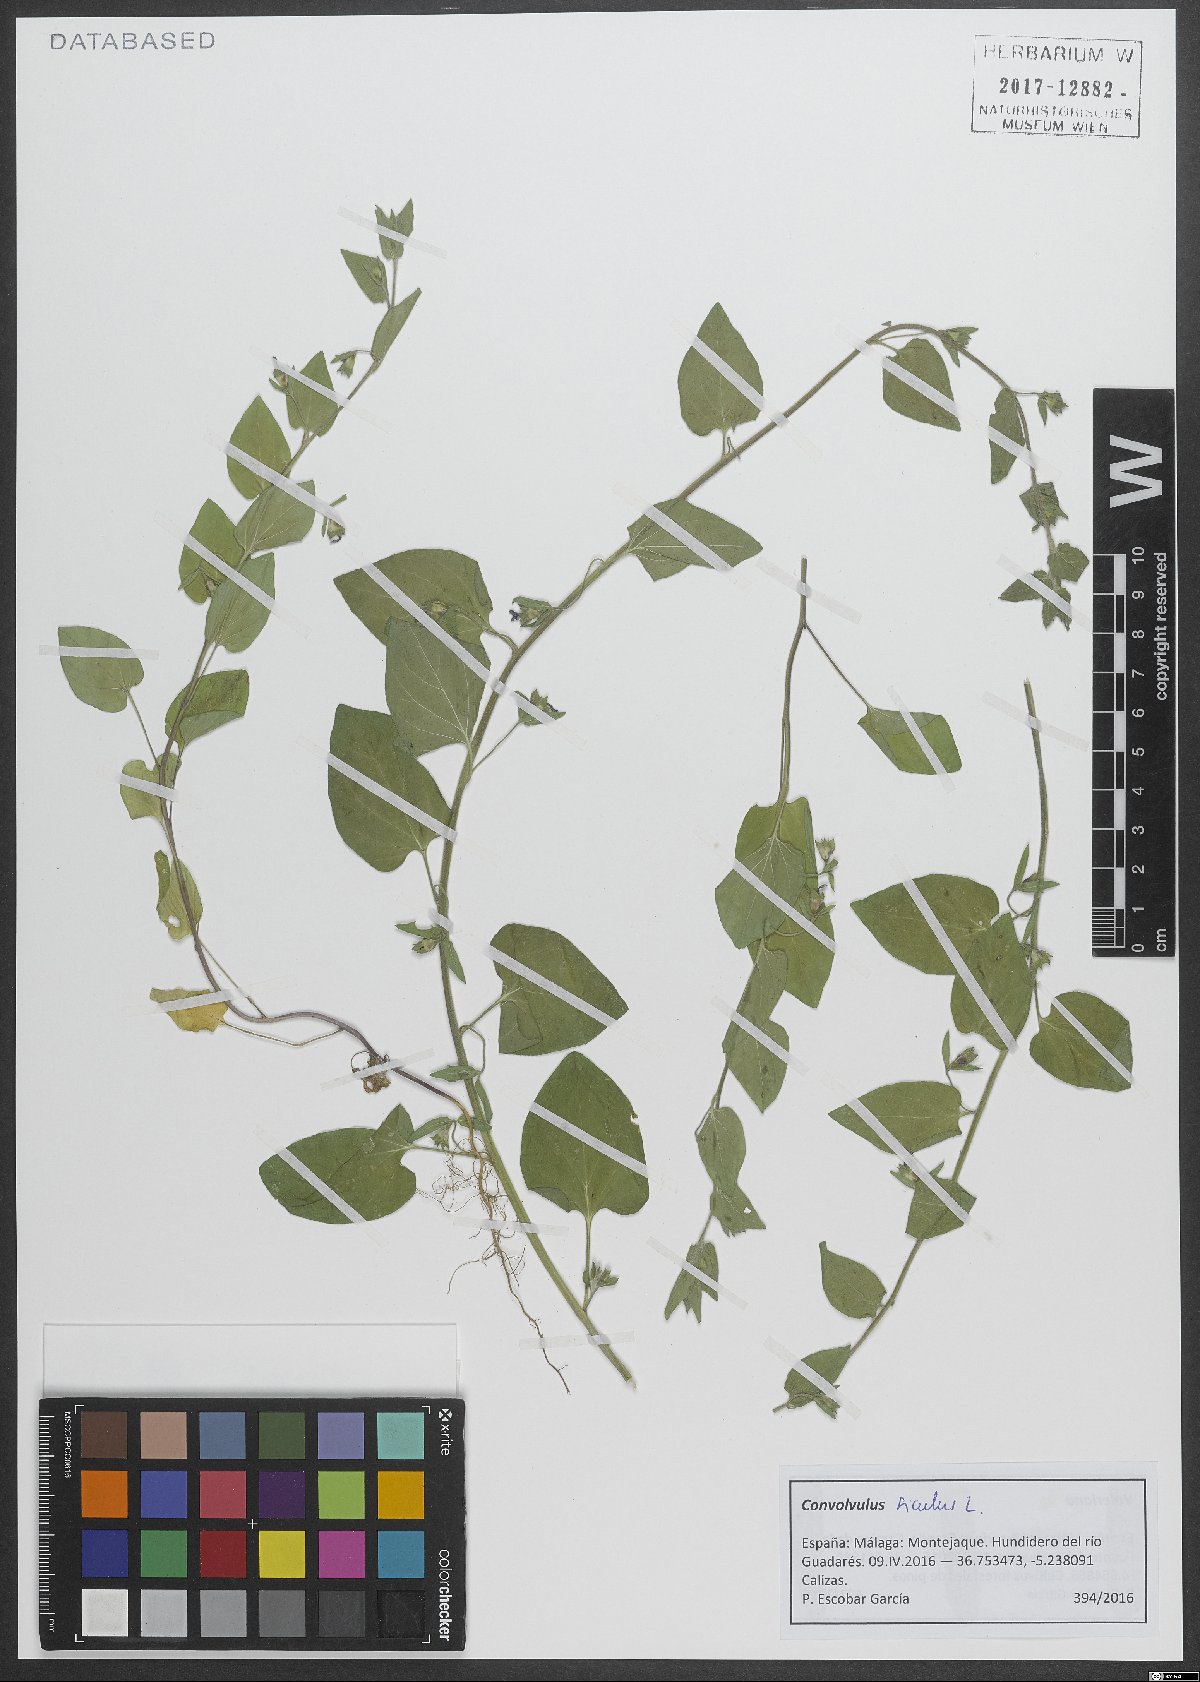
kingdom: Plantae
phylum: Tracheophyta
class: Magnoliopsida
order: Solanales
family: Convolvulaceae
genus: Convolvulus
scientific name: Convolvulus siculus
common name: Small blue-convolvulus
